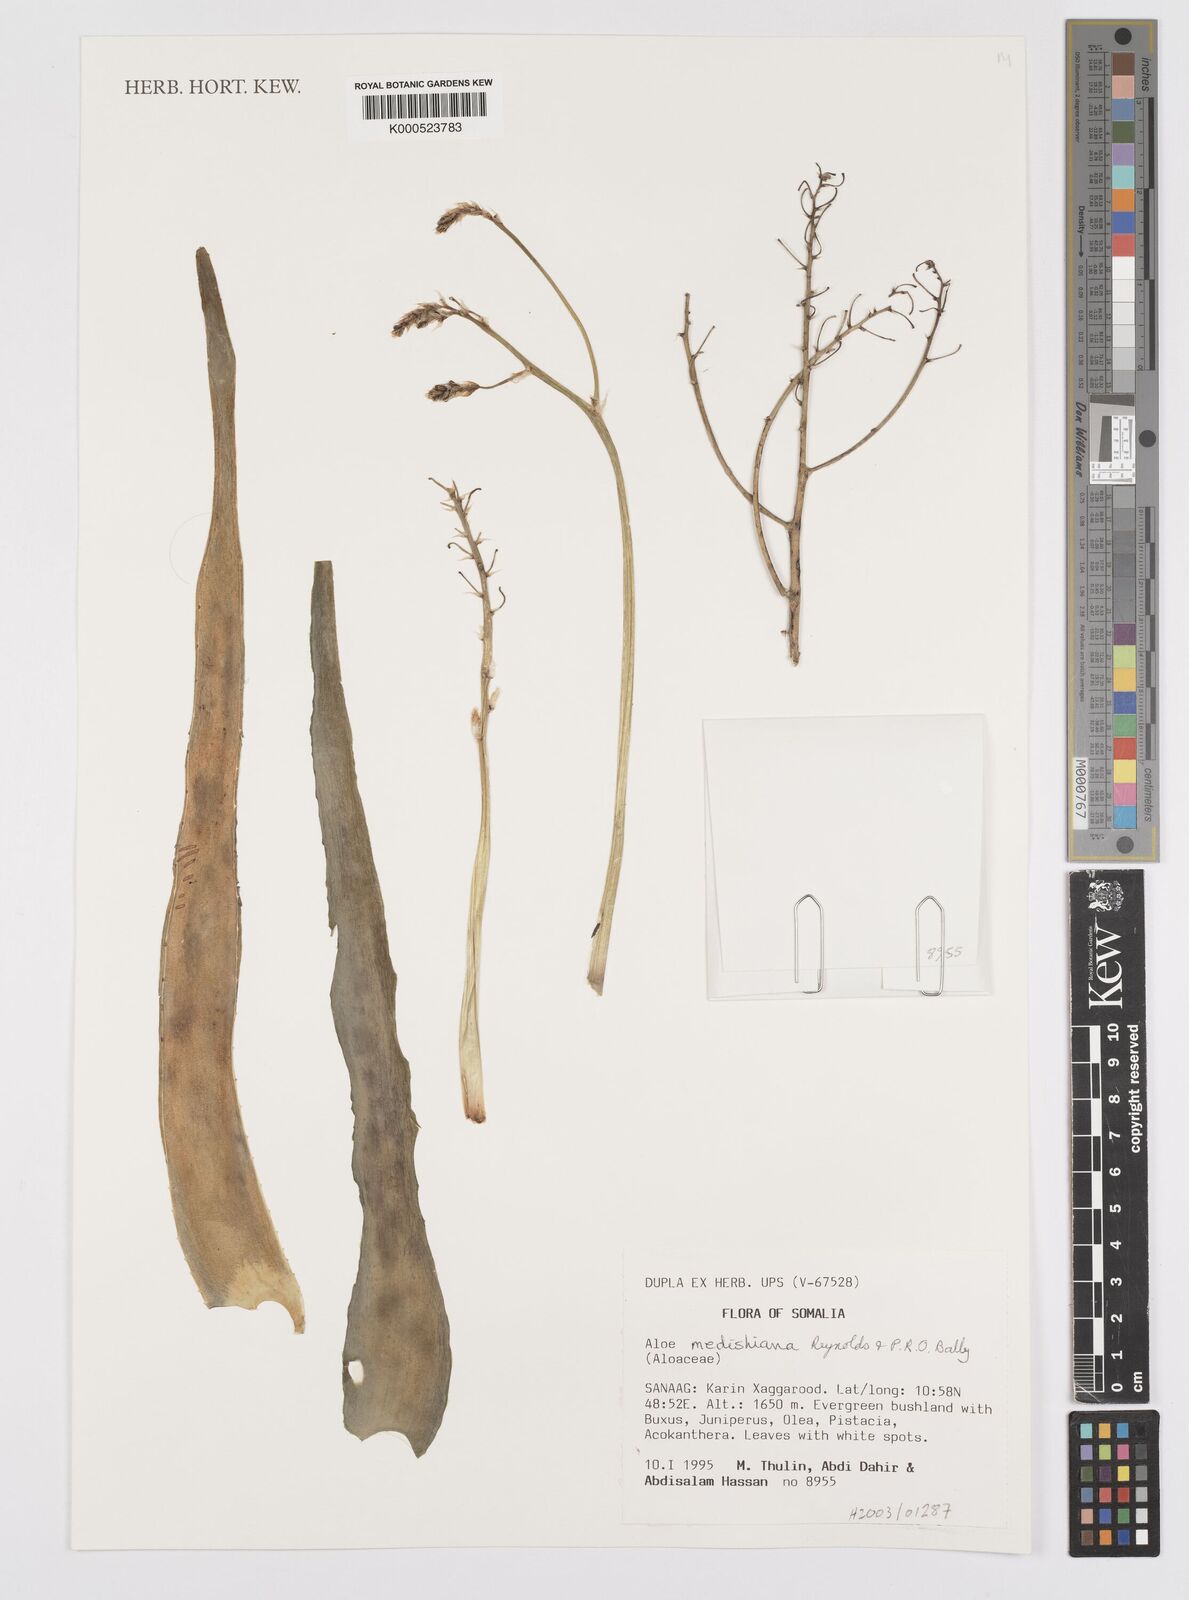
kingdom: Plantae
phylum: Tracheophyta
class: Liliopsida
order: Asparagales
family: Asphodelaceae
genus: Aloe
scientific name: Aloe medishiana
